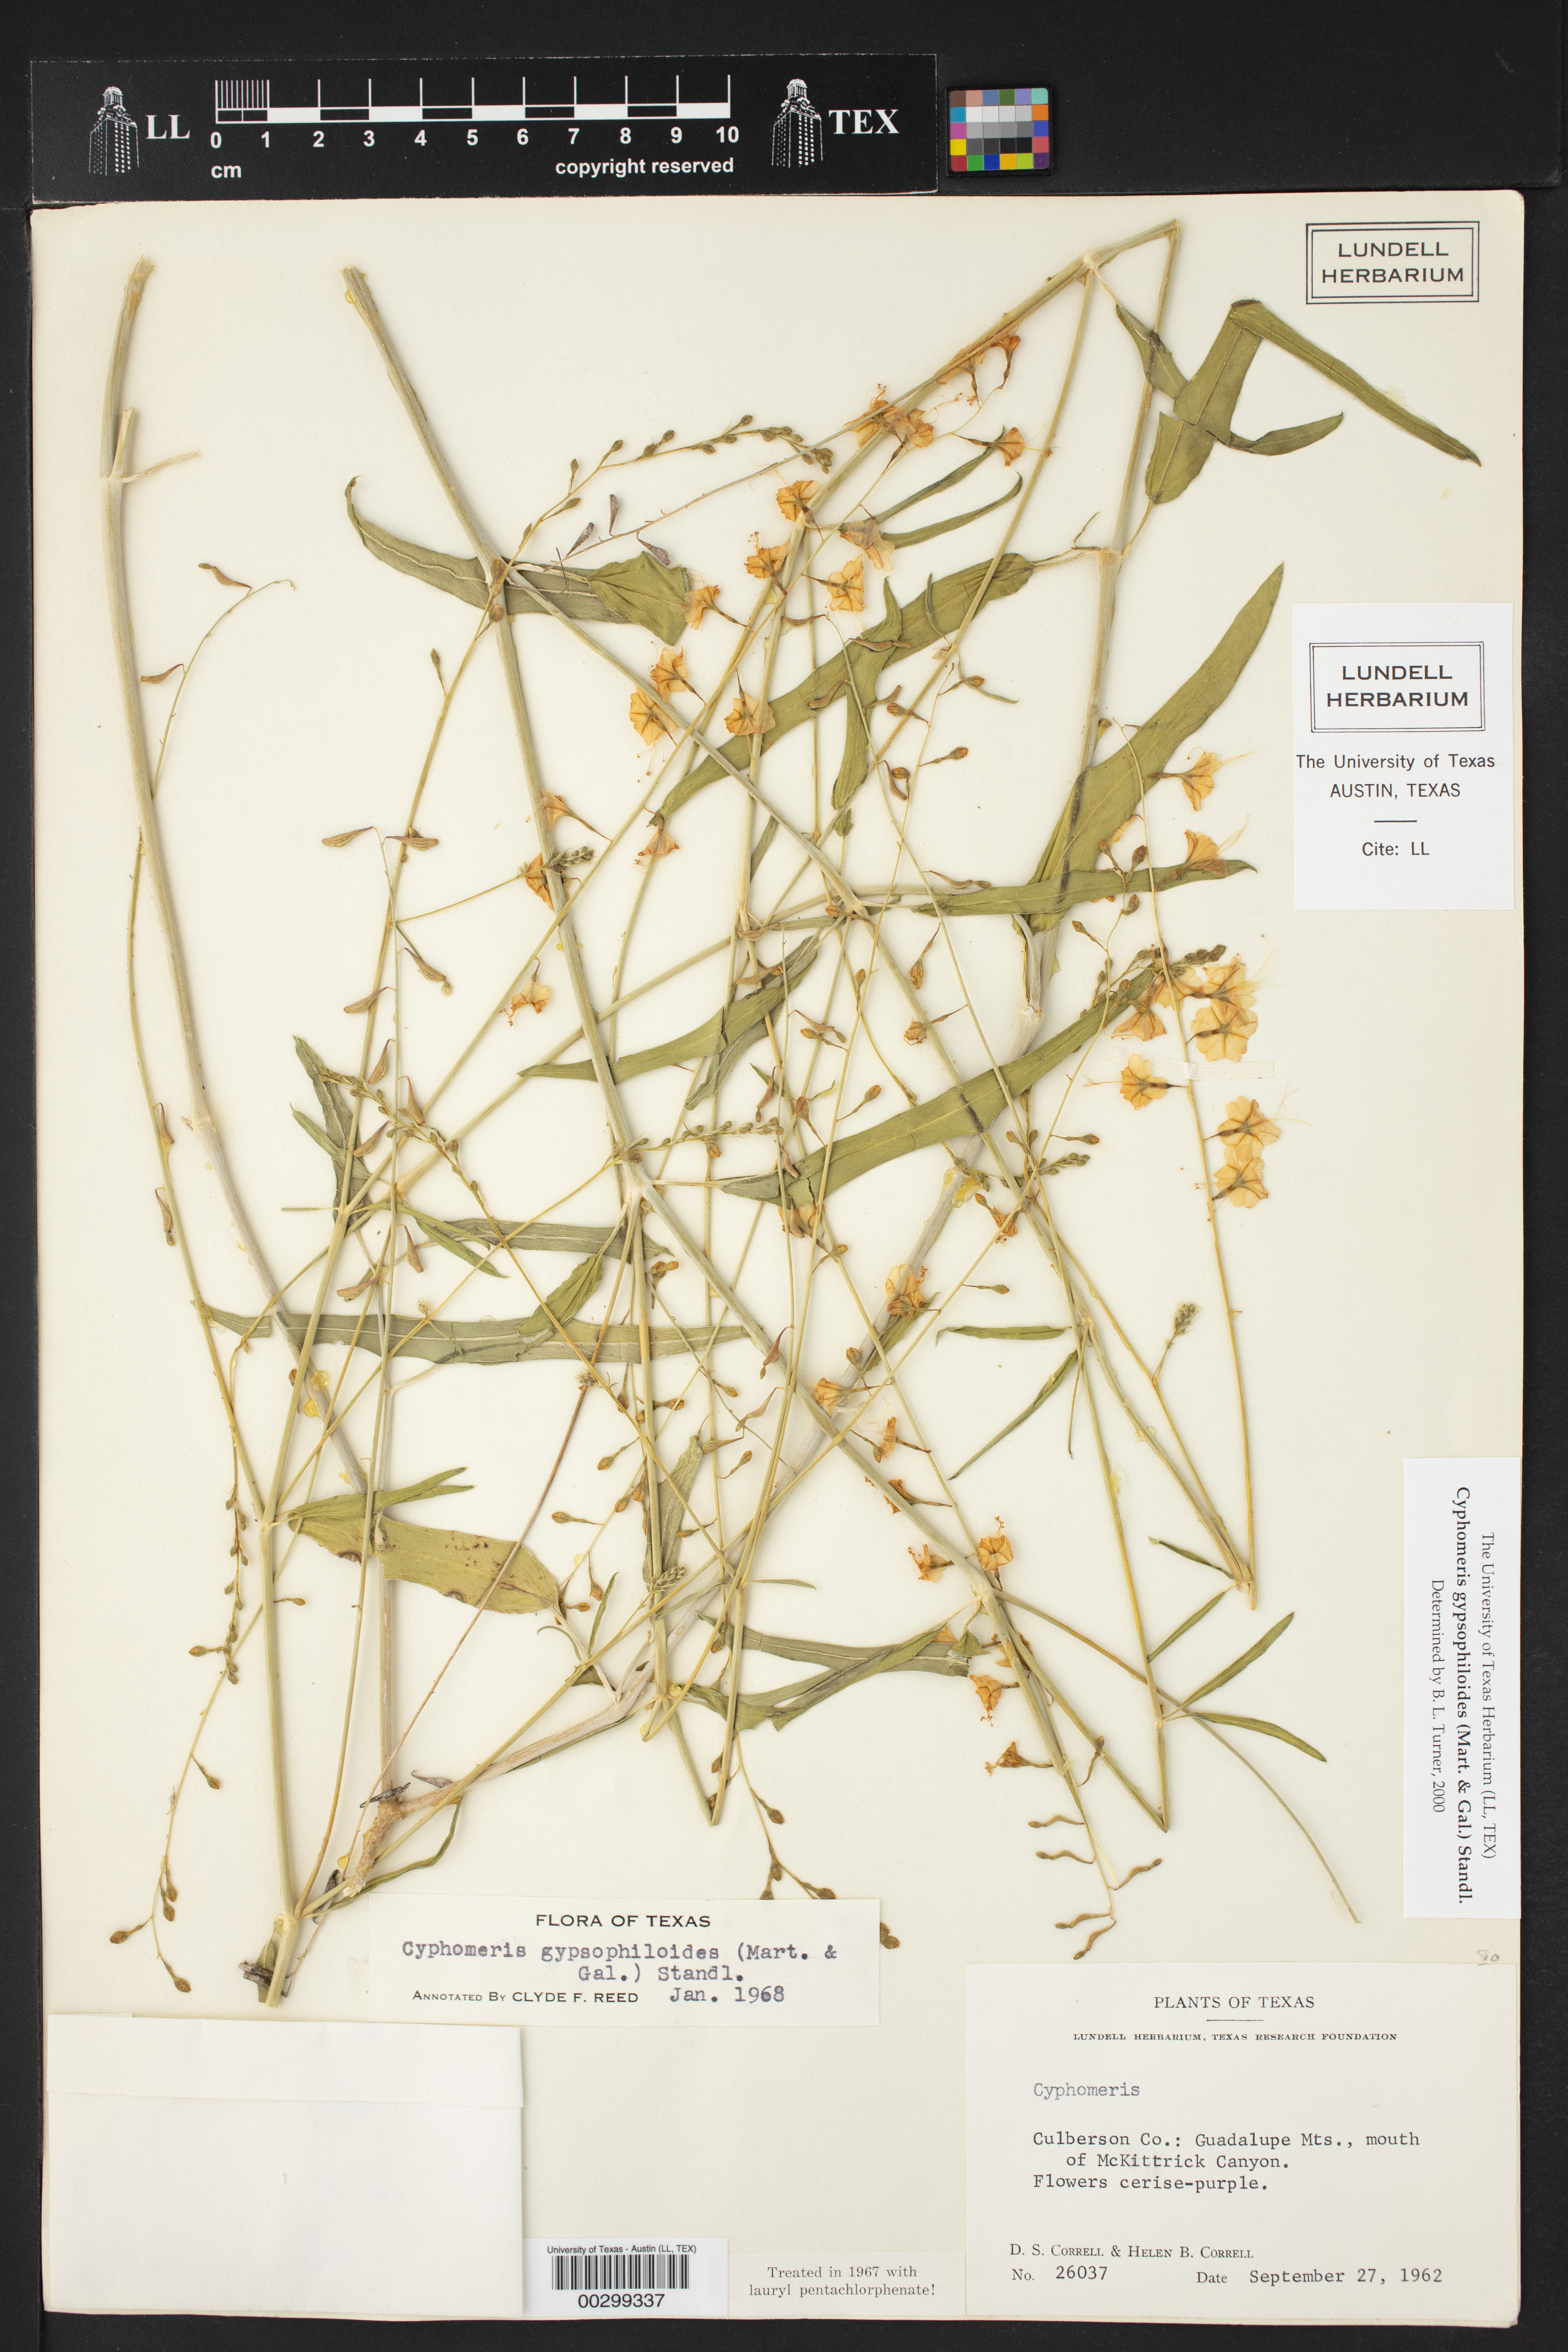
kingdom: Plantae
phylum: Tracheophyta
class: Magnoliopsida
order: Caryophyllales
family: Nyctaginaceae
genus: Cyphomeris
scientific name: Cyphomeris gypsophiloides
